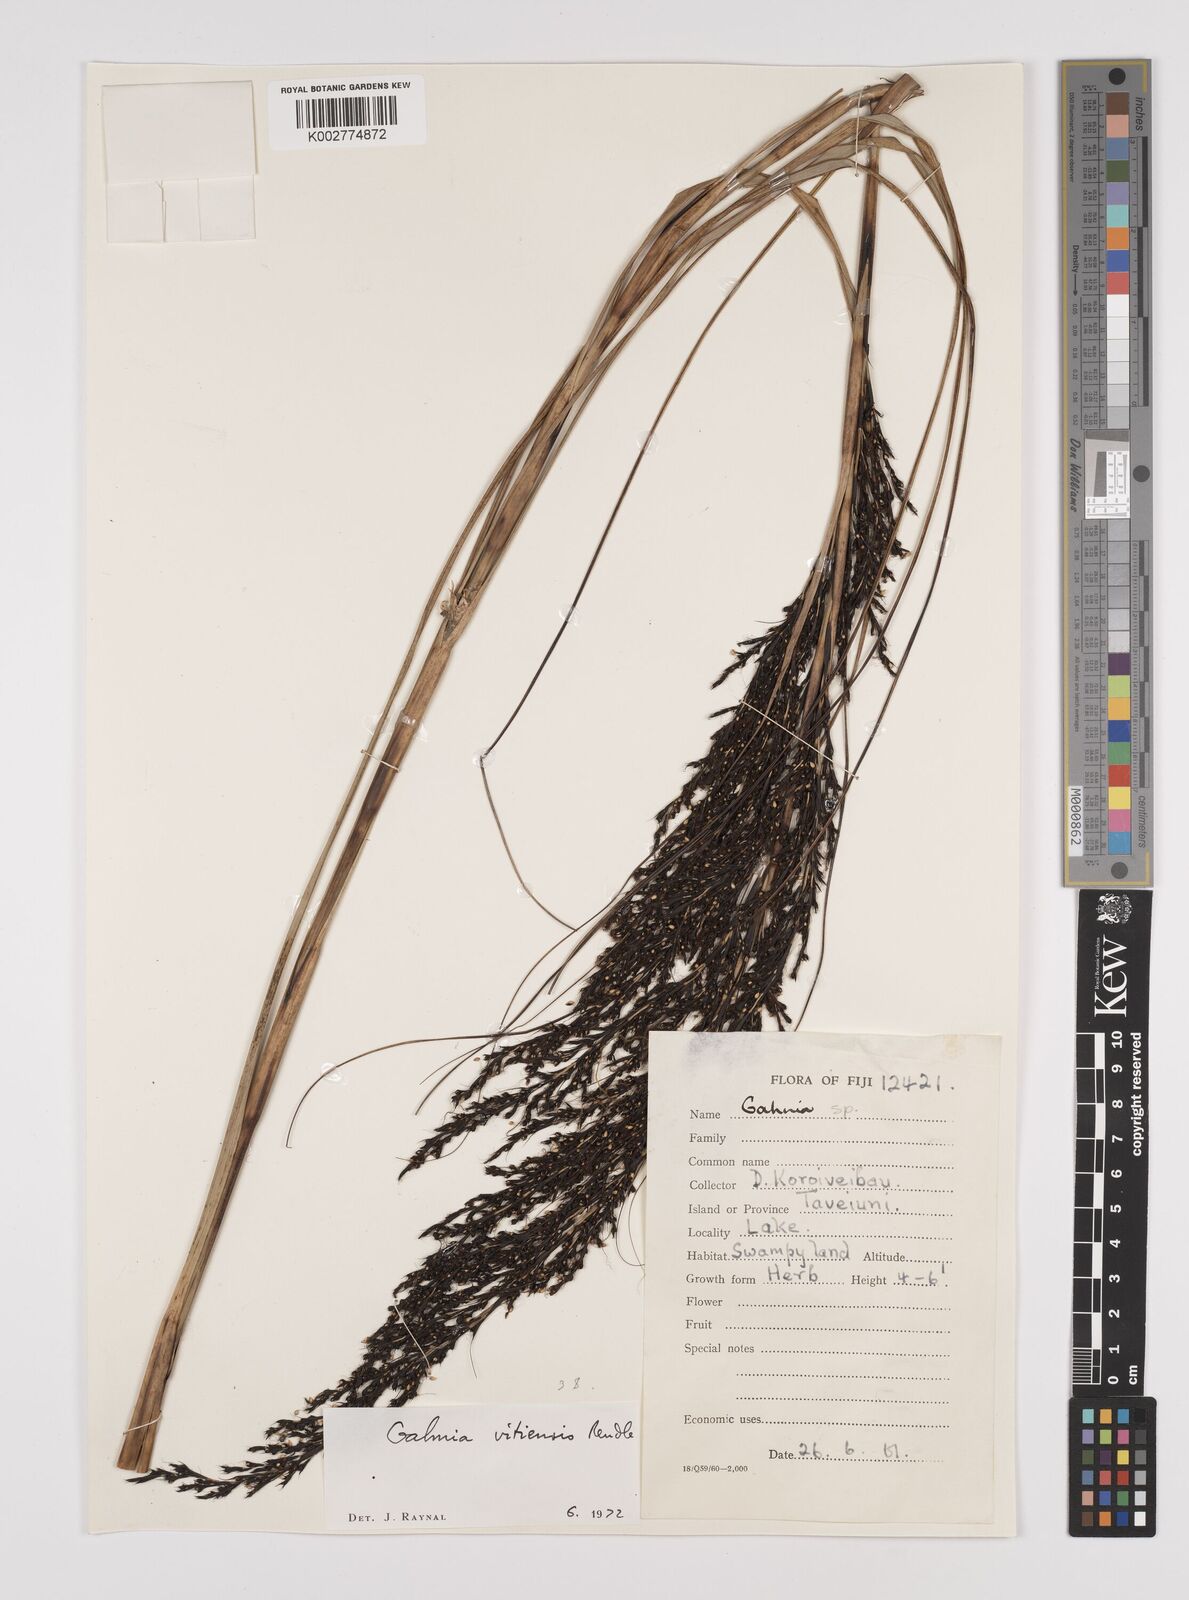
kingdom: Plantae
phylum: Tracheophyta
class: Liliopsida
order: Poales
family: Cyperaceae
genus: Gahnia
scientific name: Gahnia vitiensis
